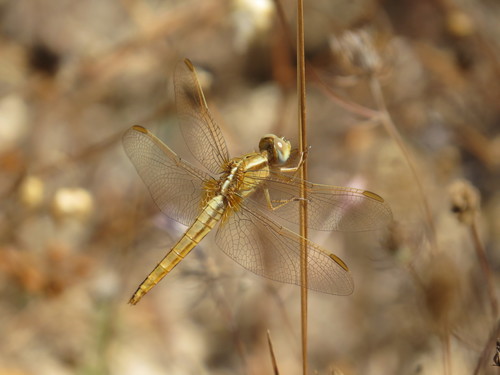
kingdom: Animalia
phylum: Arthropoda
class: Insecta
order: Odonata
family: Libellulidae
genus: Crocothemis
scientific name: Crocothemis erythraea
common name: Scarlet dragonfly
